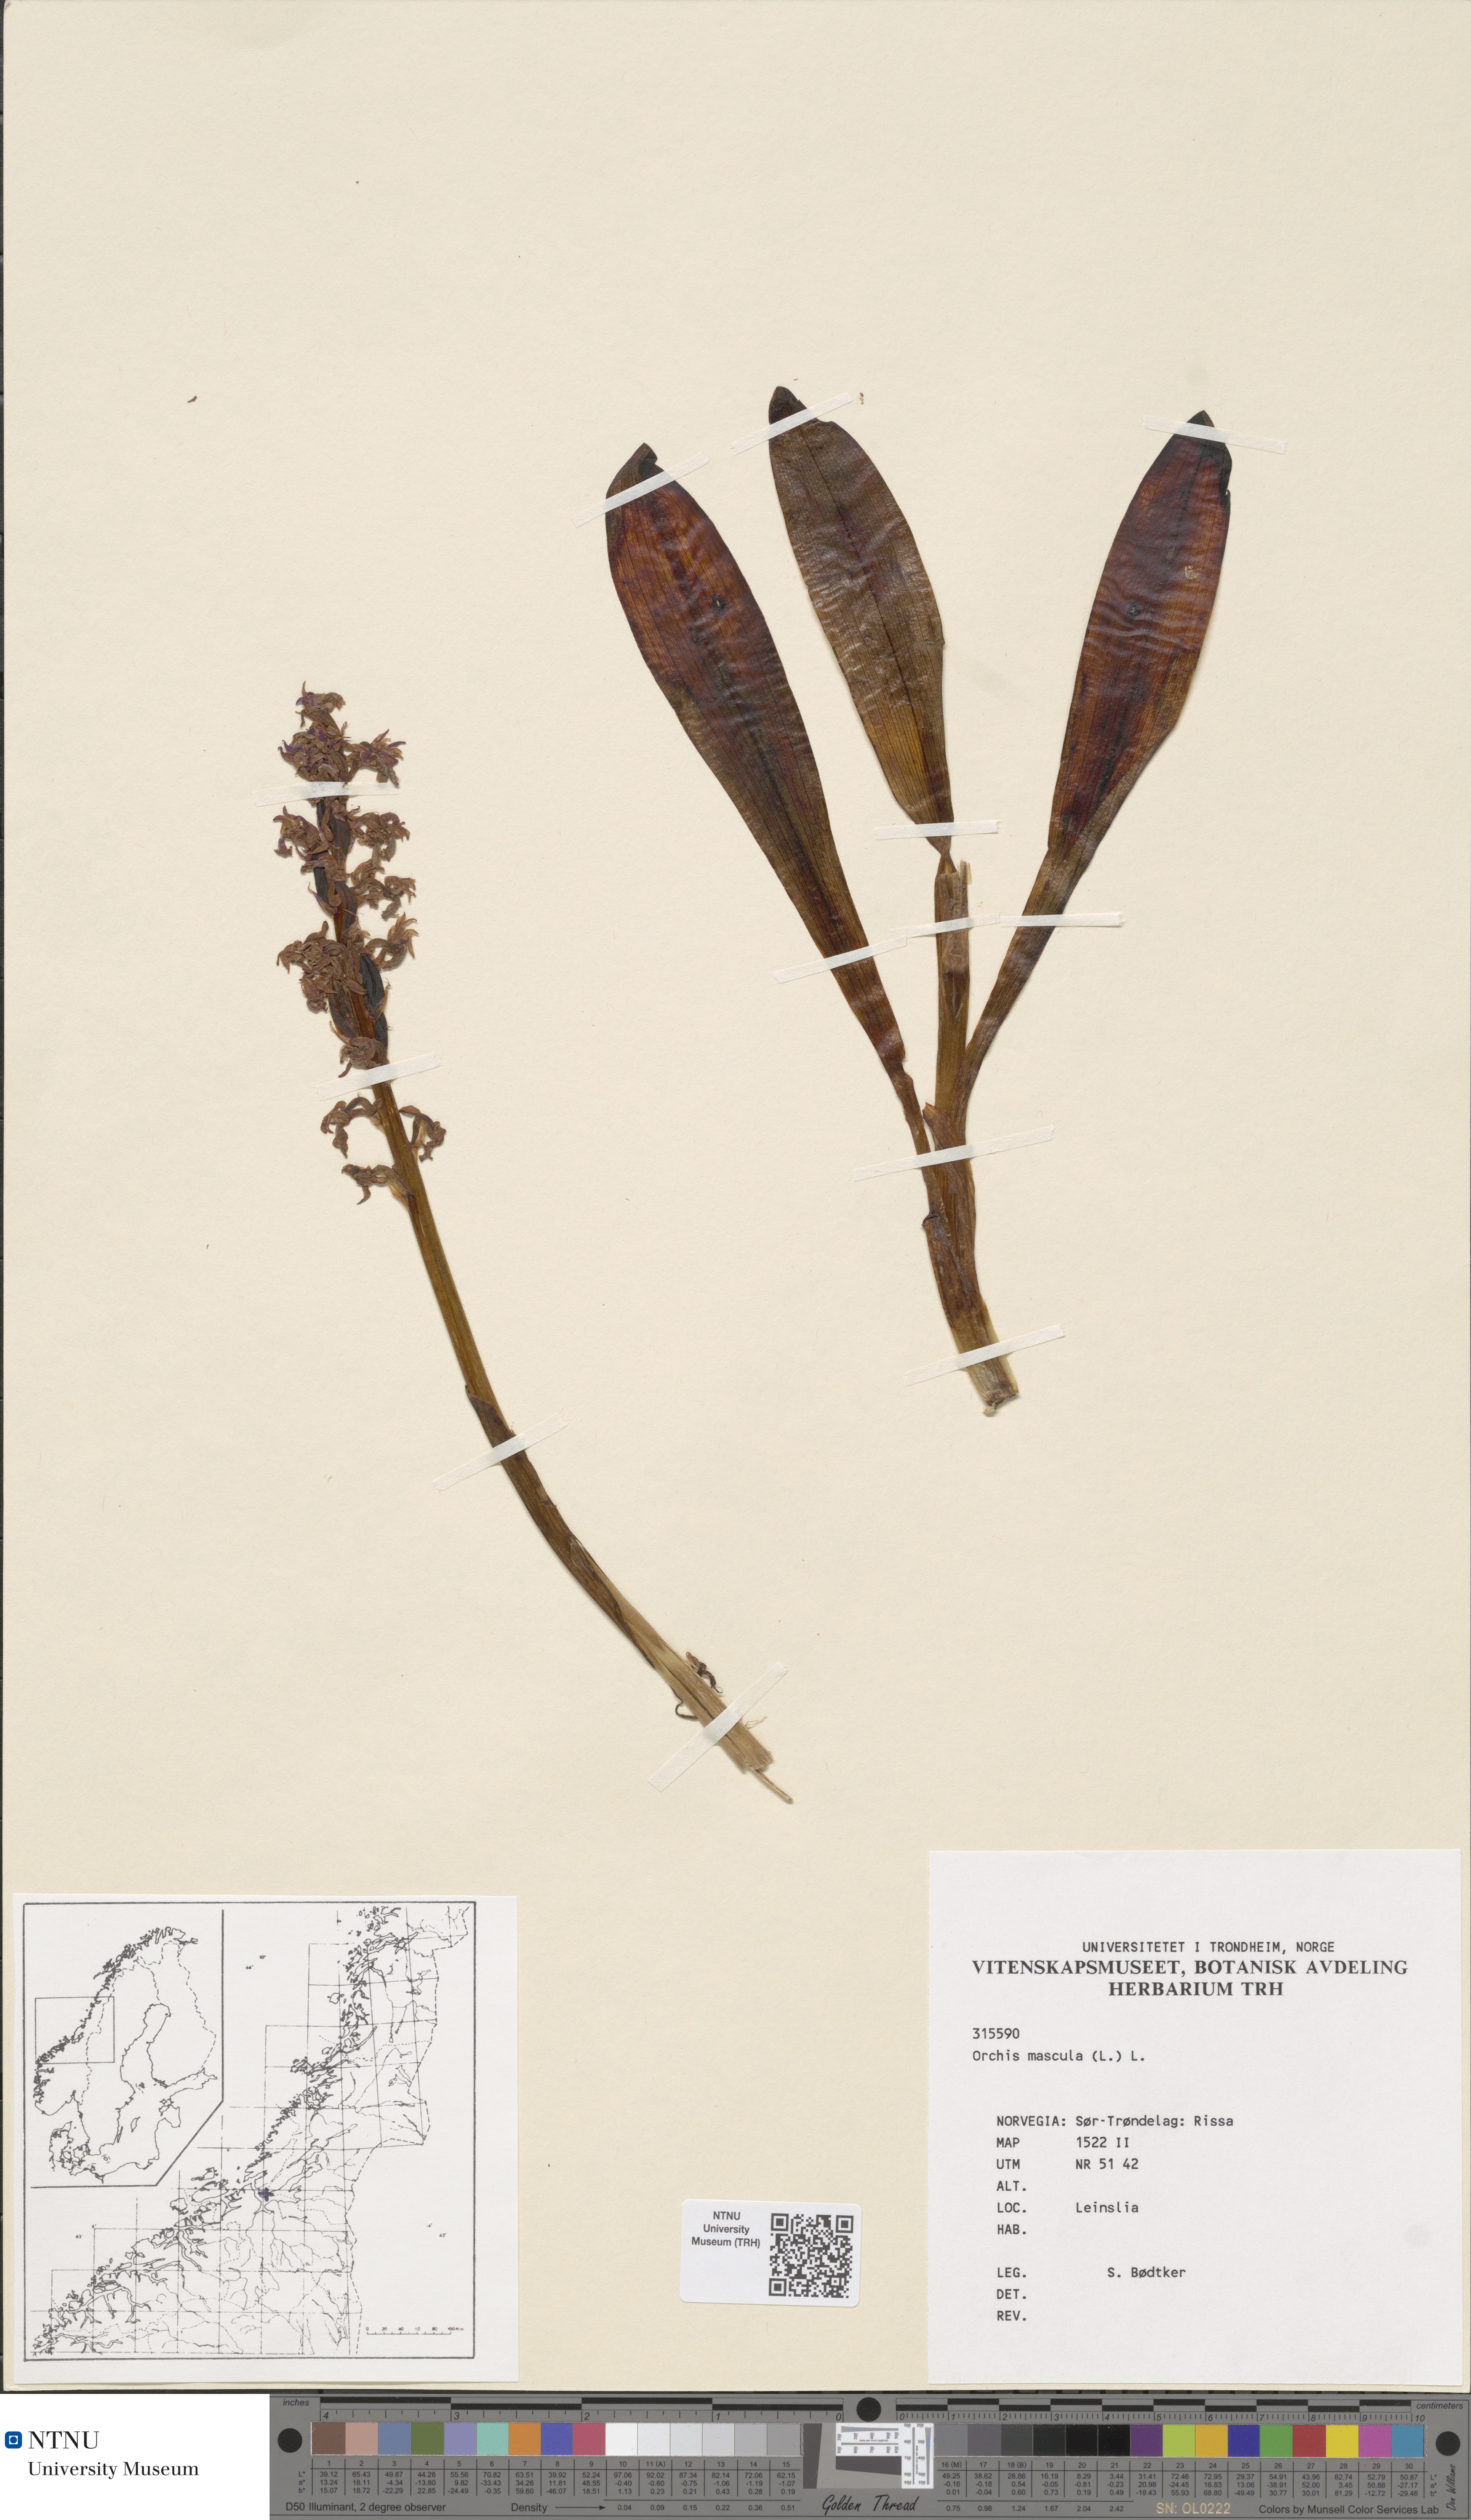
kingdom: Plantae
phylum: Tracheophyta
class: Liliopsida
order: Asparagales
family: Orchidaceae
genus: Orchis
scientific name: Orchis mascula
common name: Early-purple orchid
